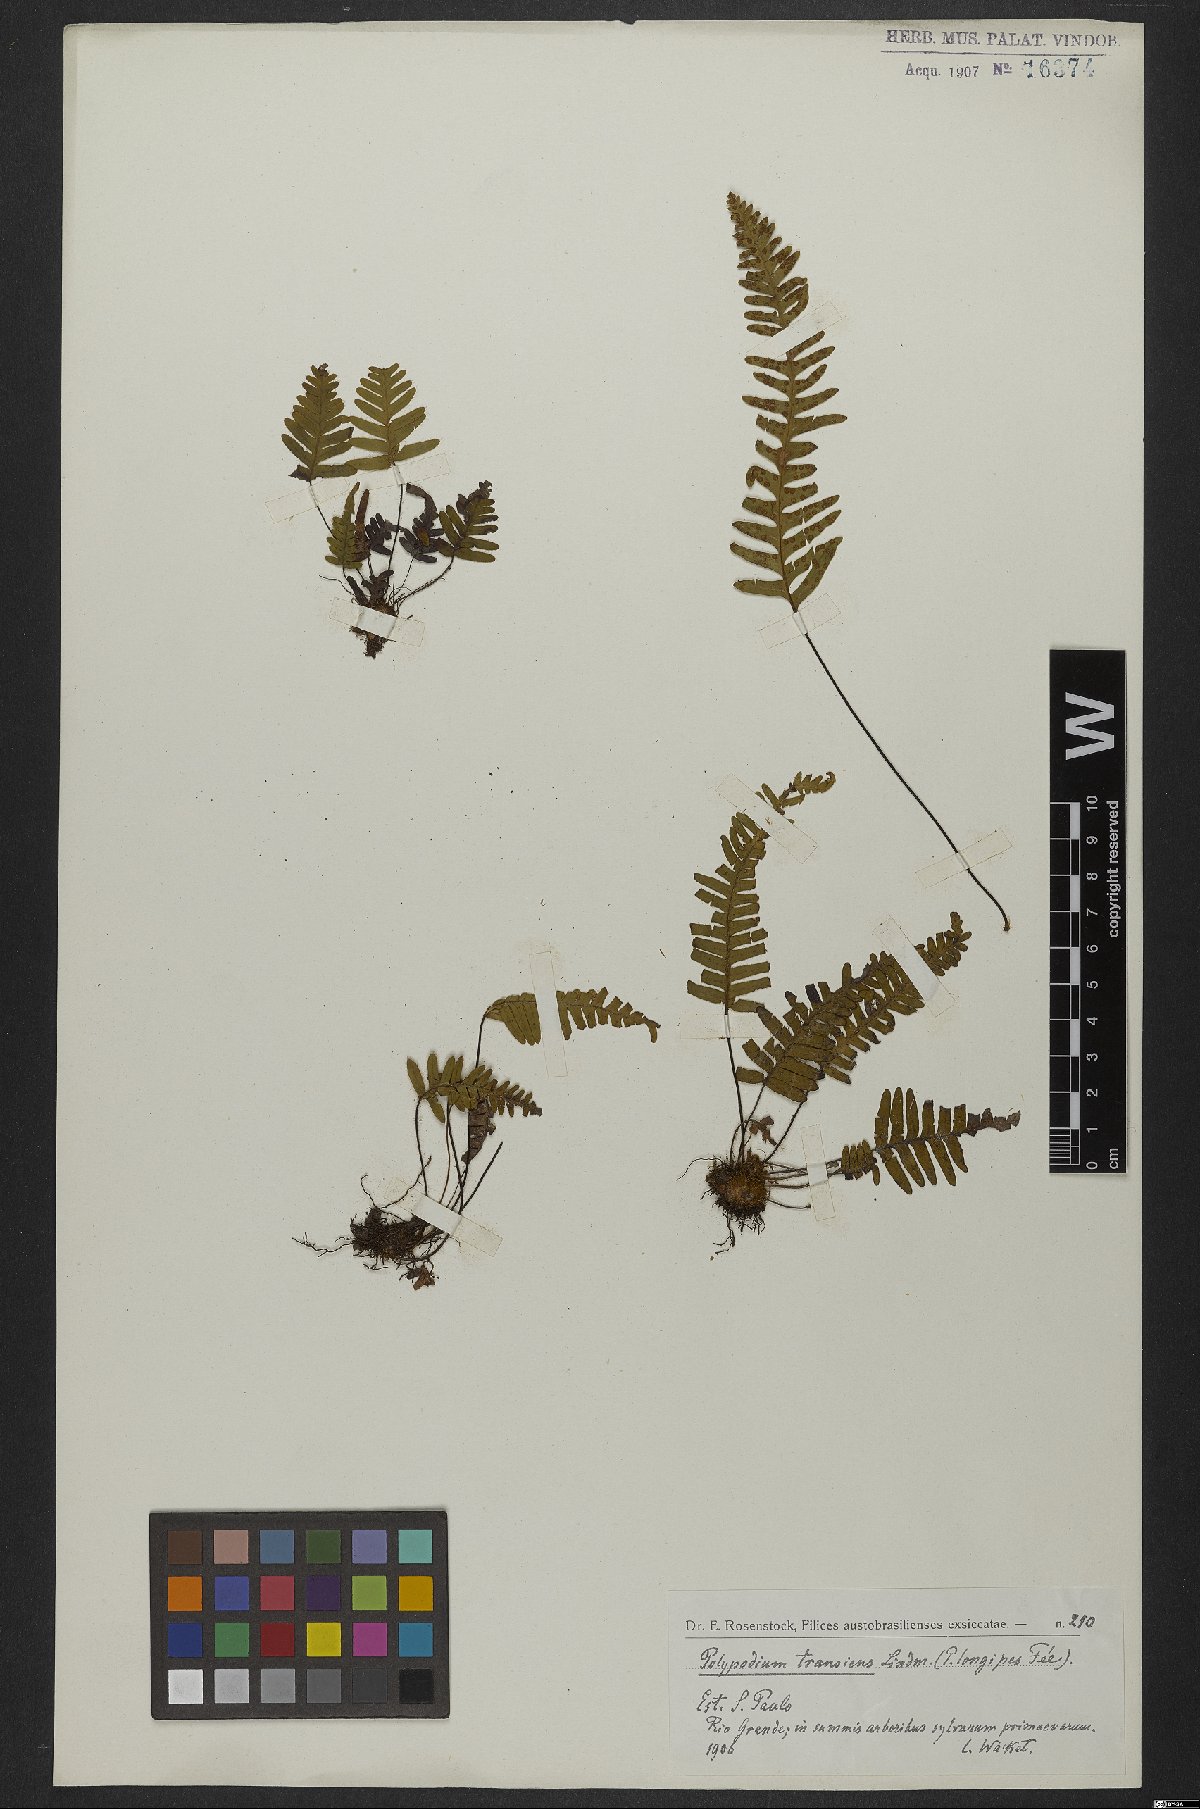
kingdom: Plantae
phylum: Tracheophyta
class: Polypodiopsida
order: Polypodiales
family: Polypodiaceae
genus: Ceradenia
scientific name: Ceradenia kalbreyeri
